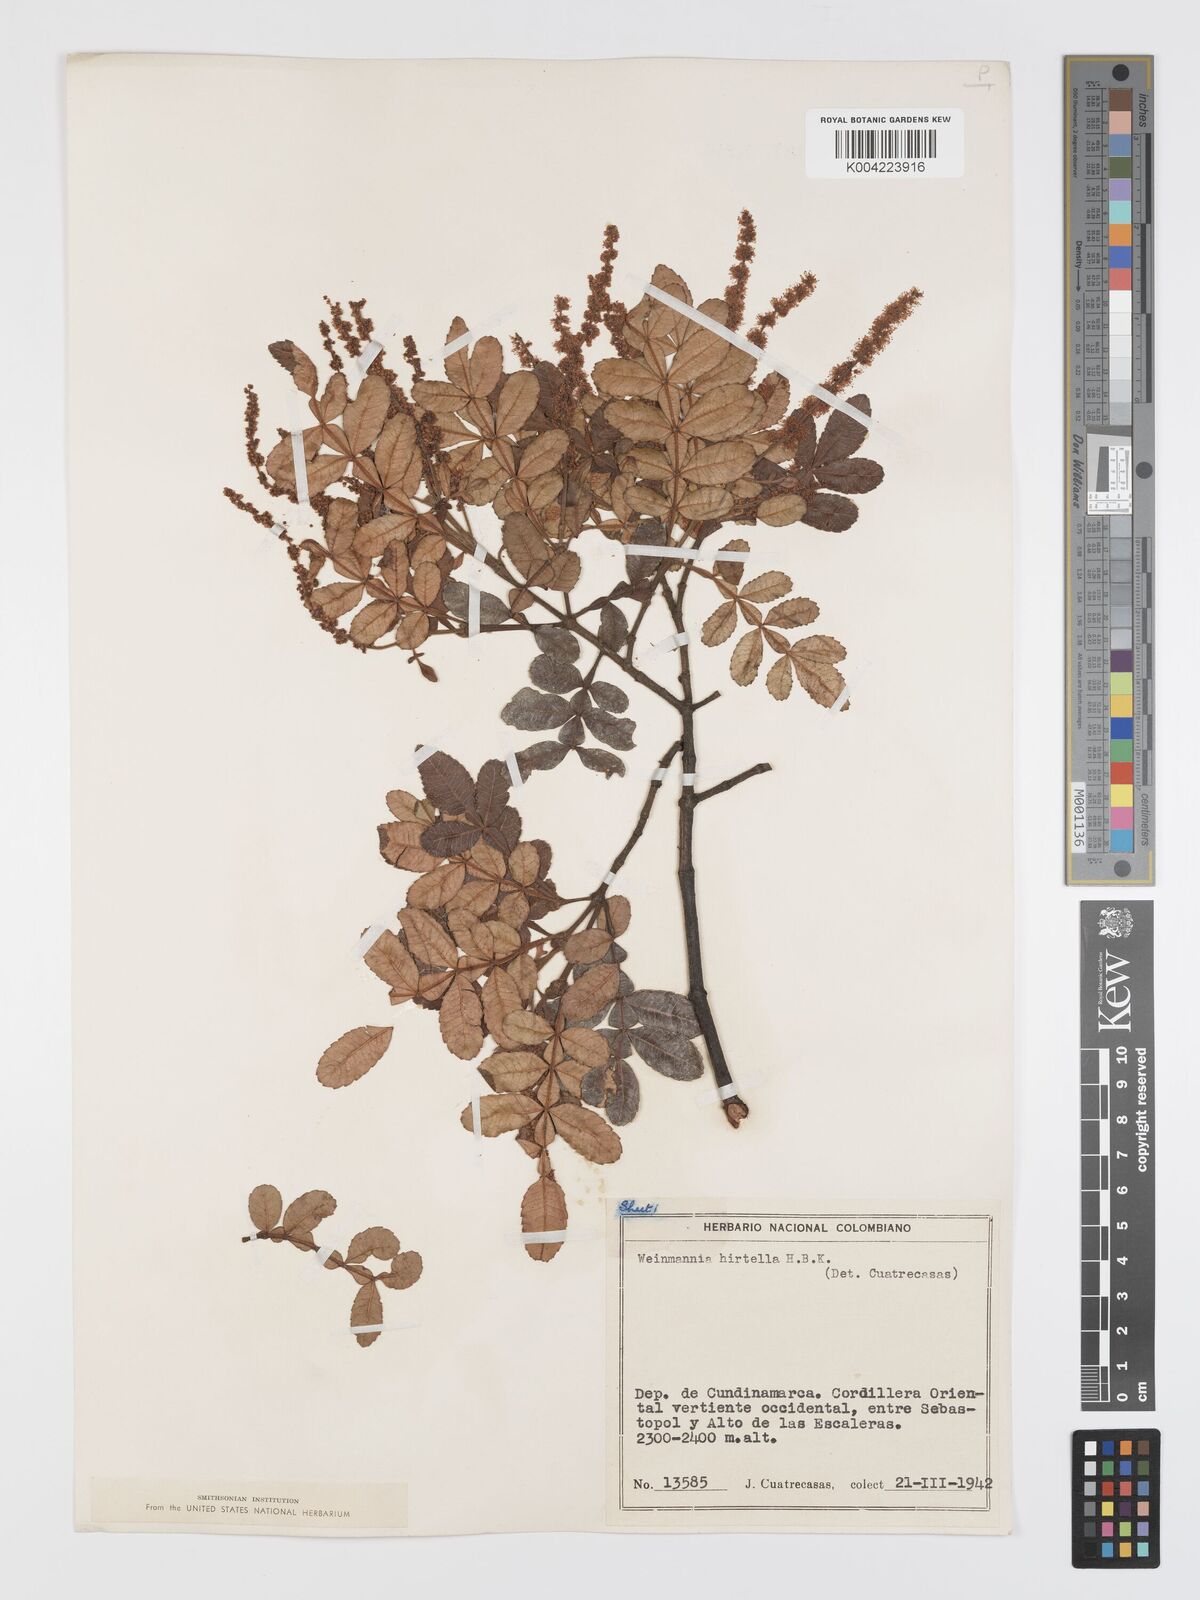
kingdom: Plantae
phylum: Tracheophyta
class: Magnoliopsida
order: Oxalidales
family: Cunoniaceae
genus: Weinmannia
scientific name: Weinmannia pinnata
